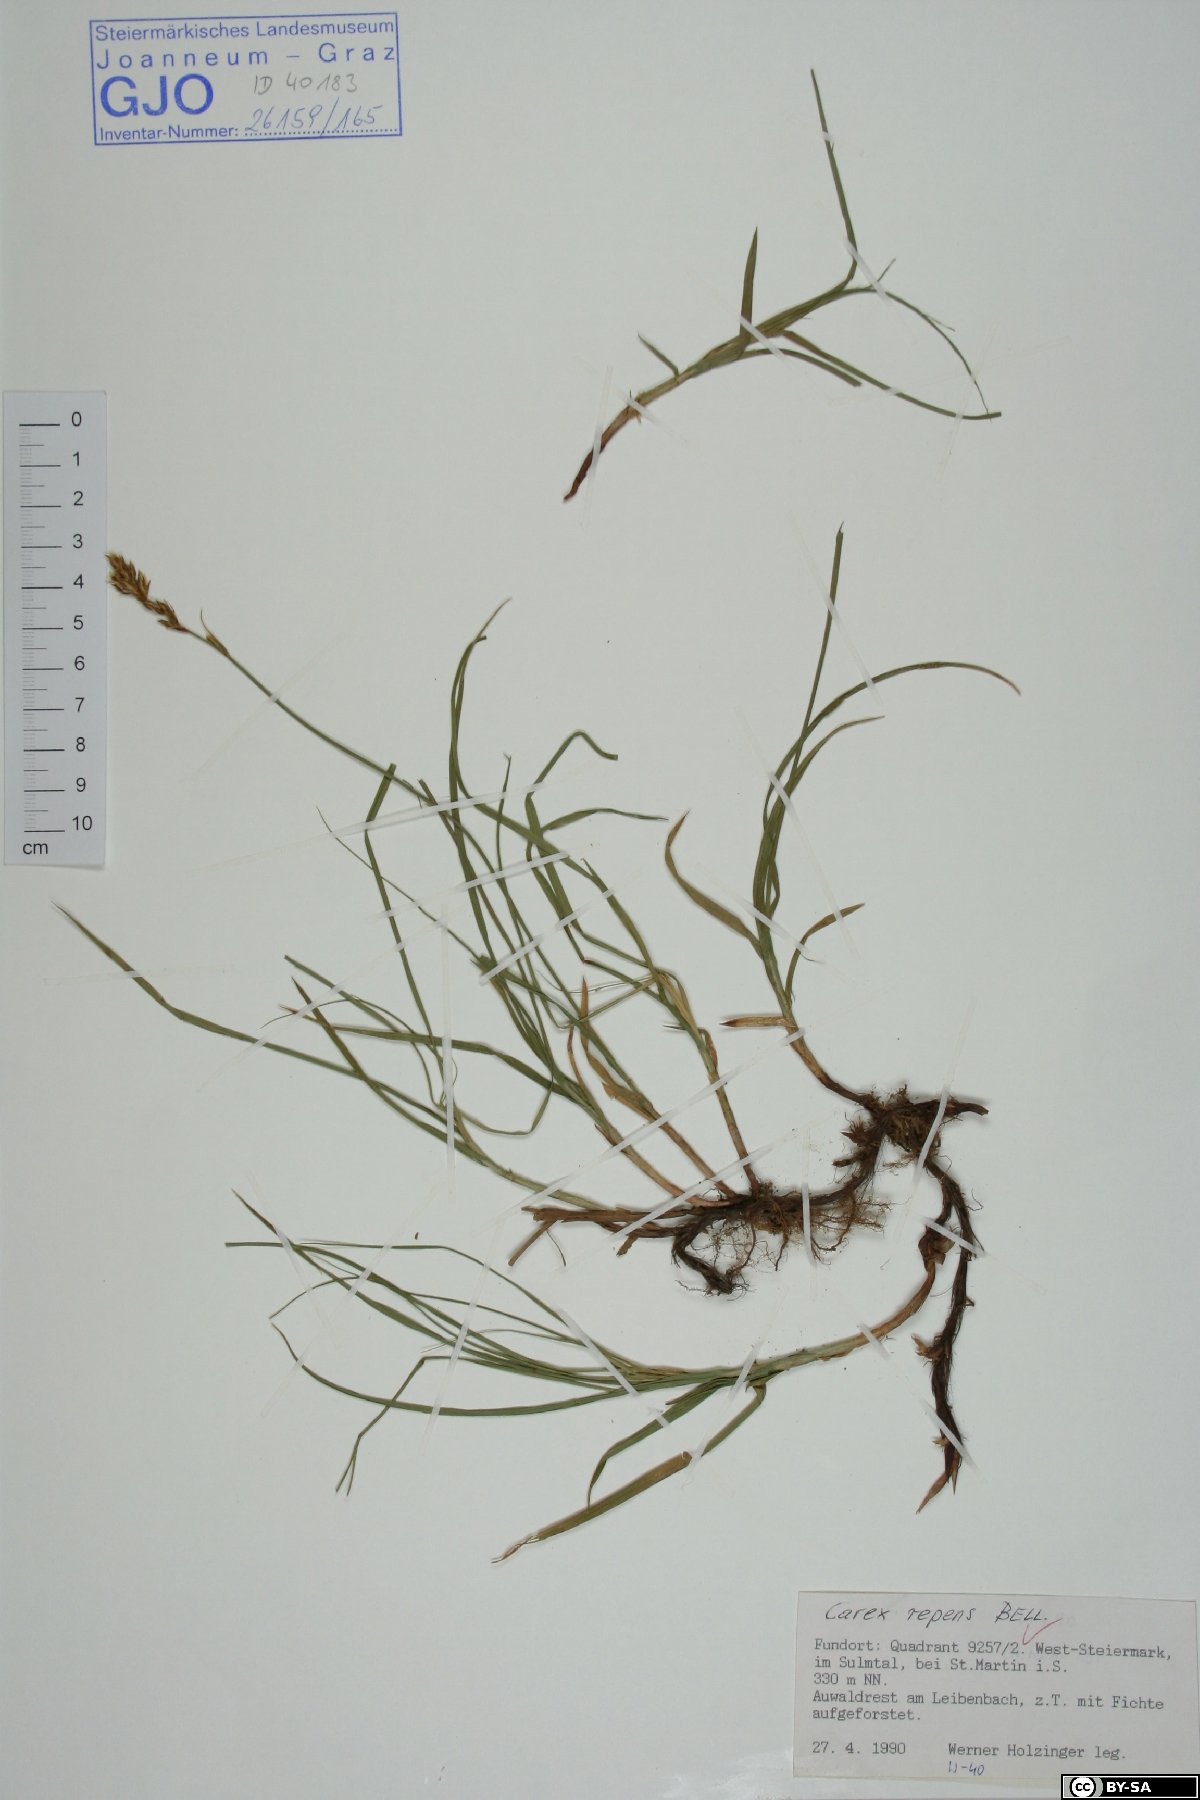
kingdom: Plantae
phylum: Tracheophyta
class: Liliopsida
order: Poales
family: Cyperaceae
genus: Carex
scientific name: Carex repens
